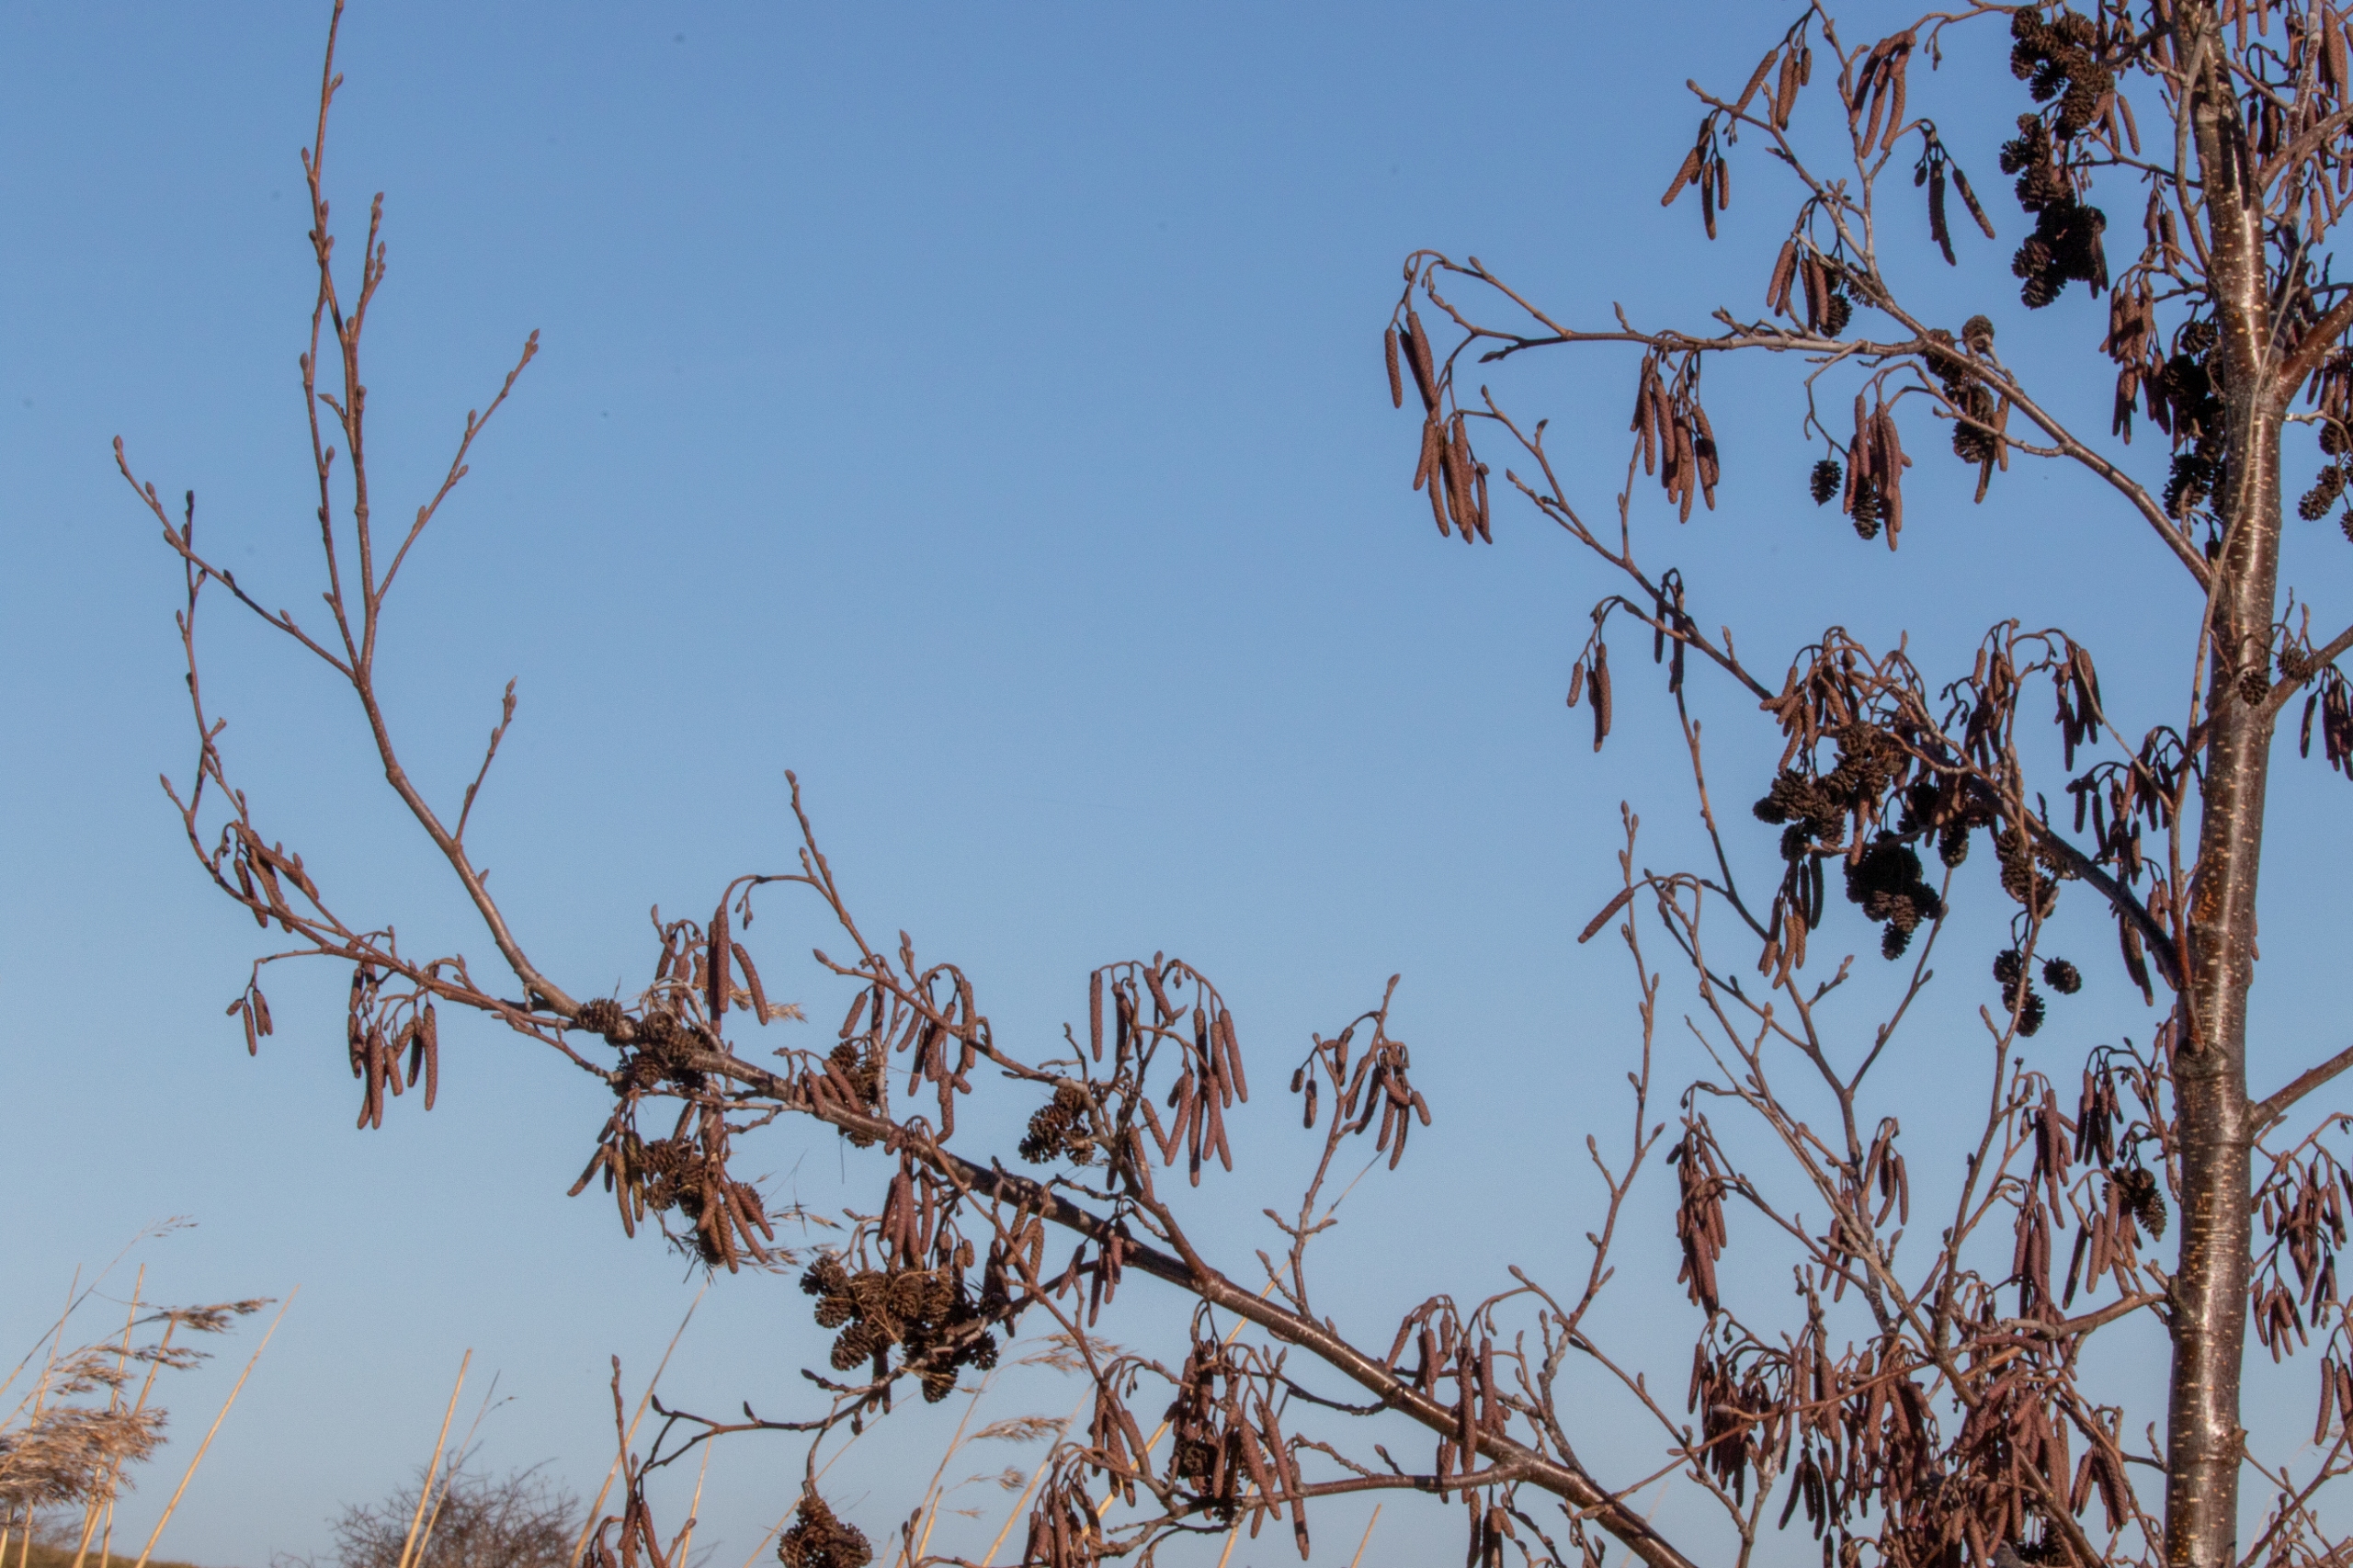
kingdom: Plantae
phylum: Tracheophyta
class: Magnoliopsida
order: Fagales
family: Betulaceae
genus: Alnus
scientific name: Alnus glutinosa
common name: Rød-el
